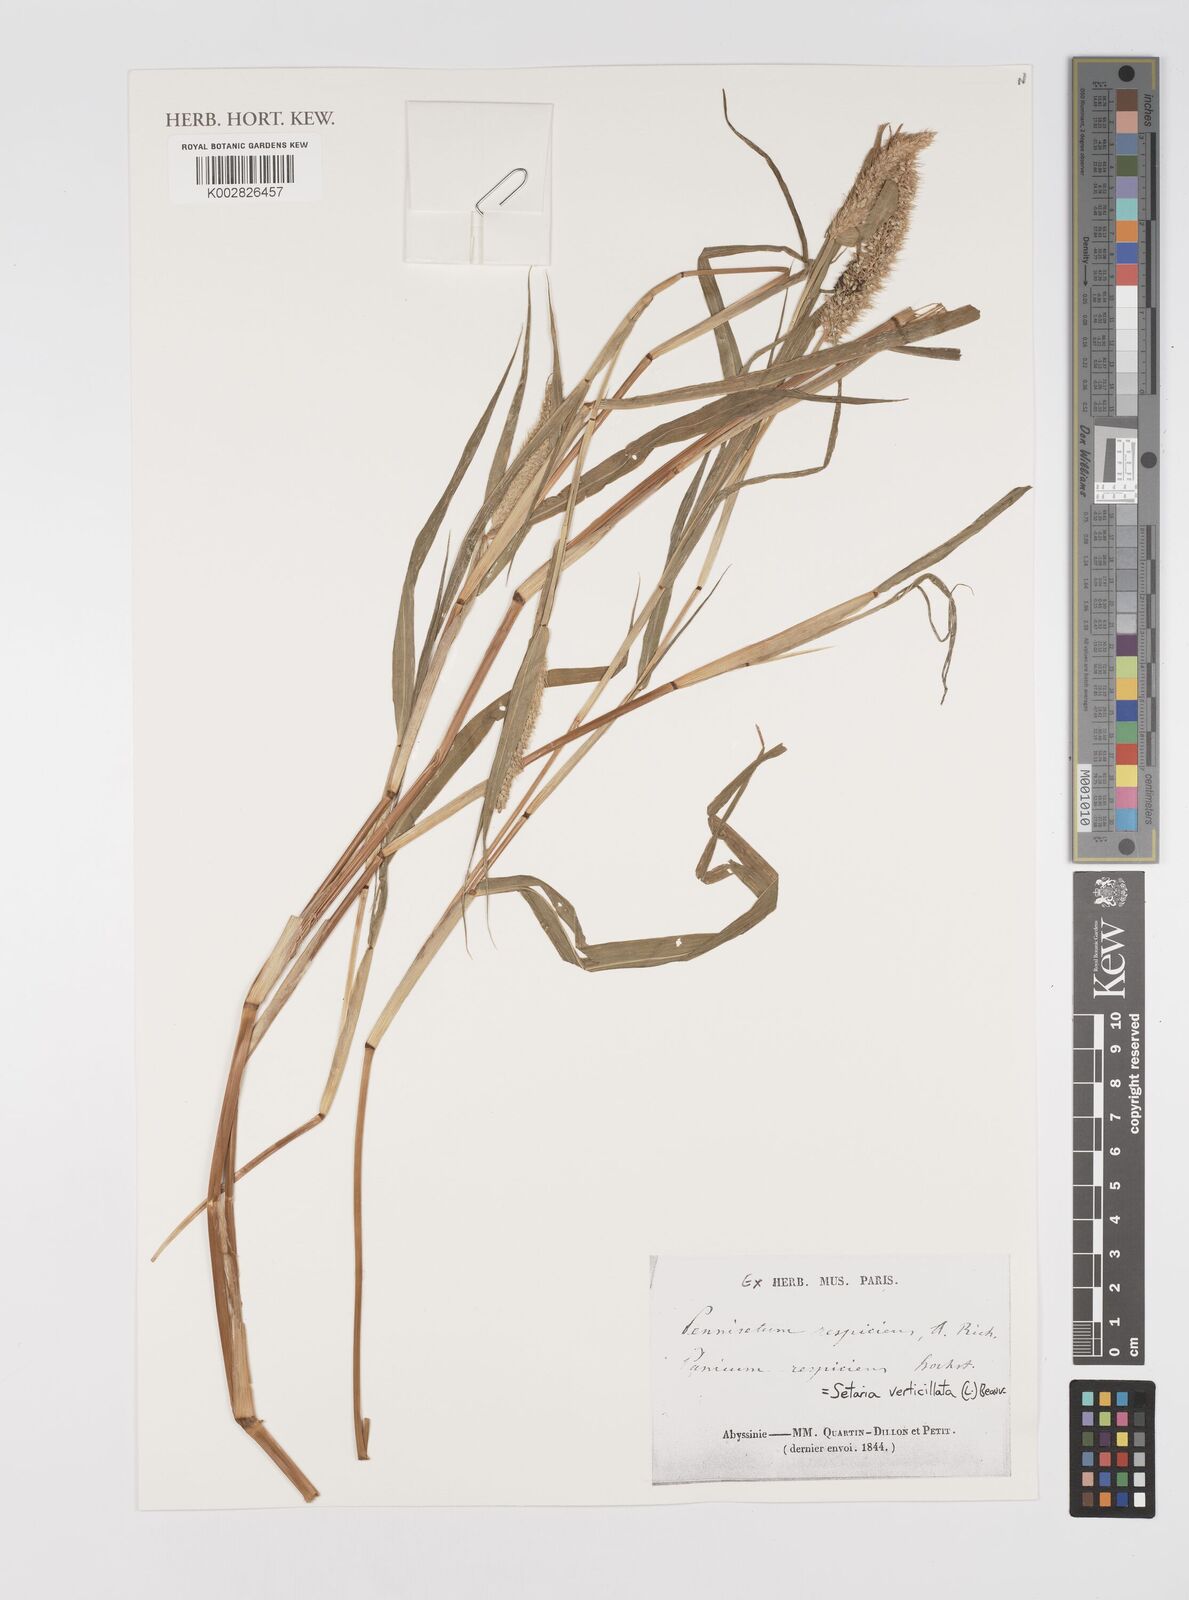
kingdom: Plantae
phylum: Tracheophyta
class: Liliopsida
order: Poales
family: Poaceae
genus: Setaria
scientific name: Setaria verticillata
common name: Hooked bristlegrass
